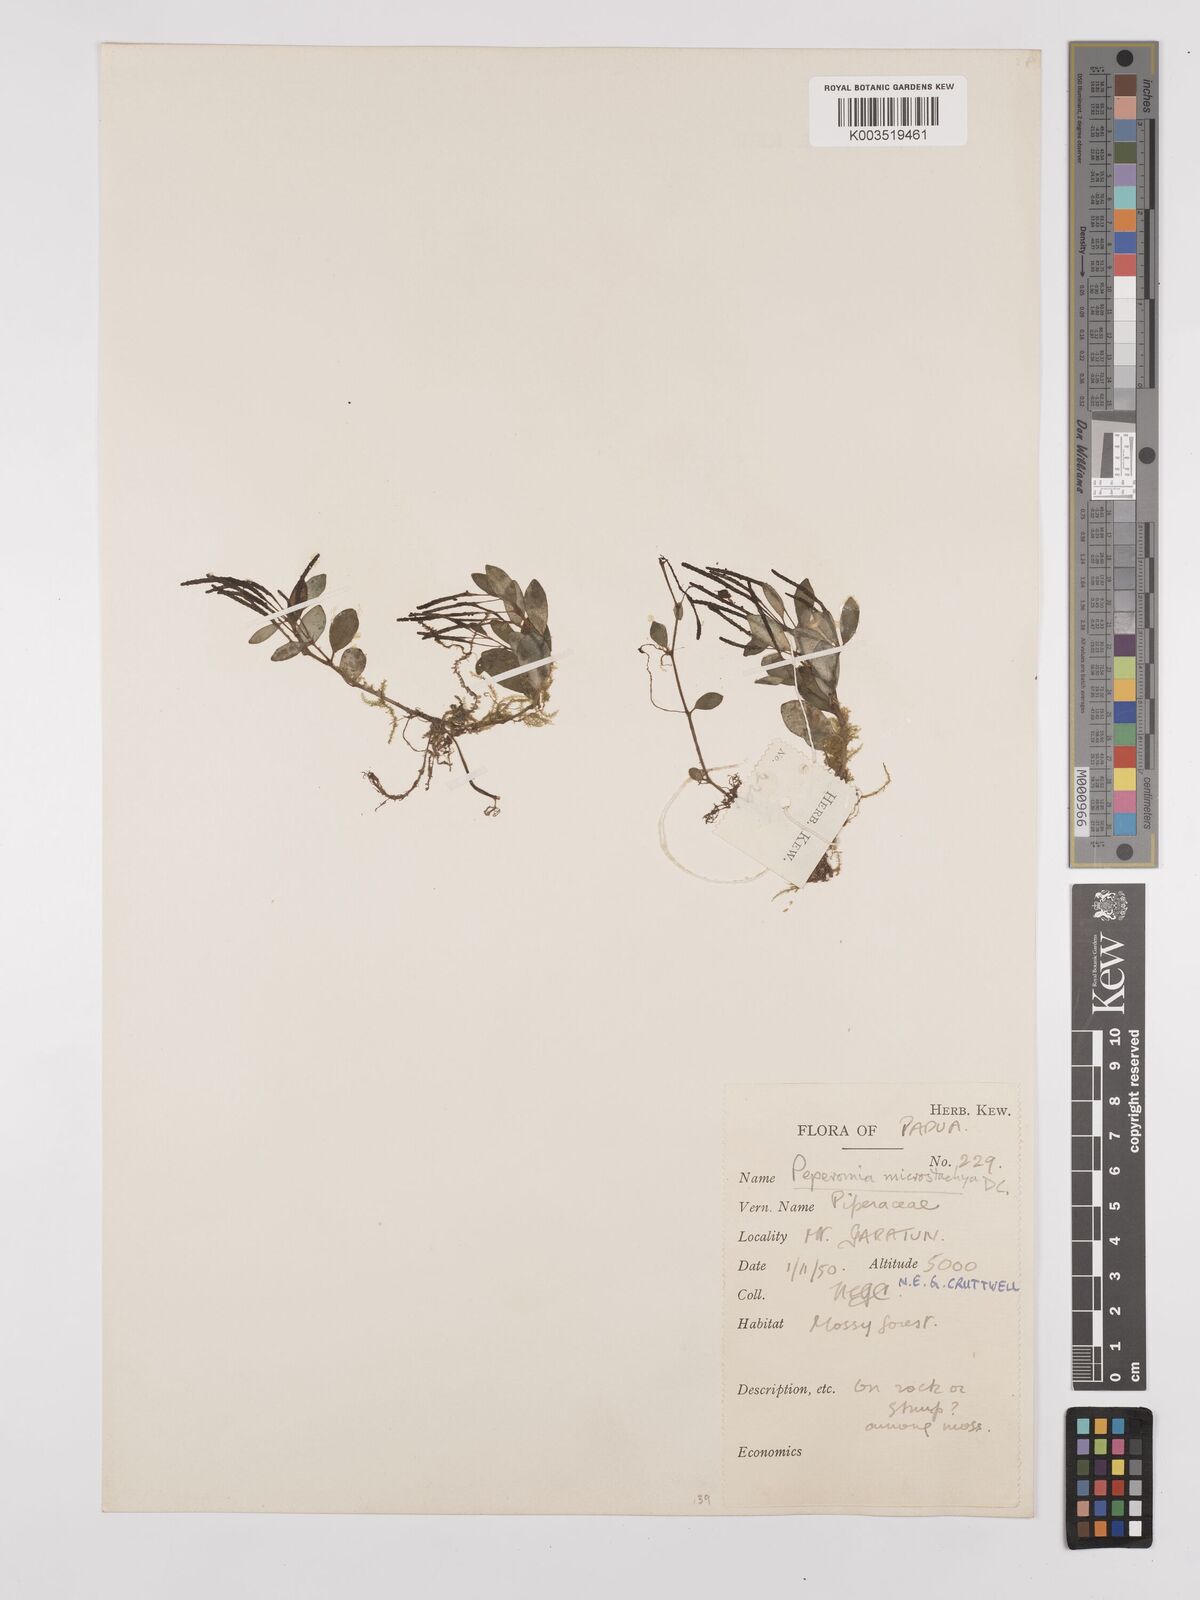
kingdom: Plantae
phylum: Tracheophyta
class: Magnoliopsida
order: Piperales
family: Piperaceae
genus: Peperomia
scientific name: Peperomia microstachya
